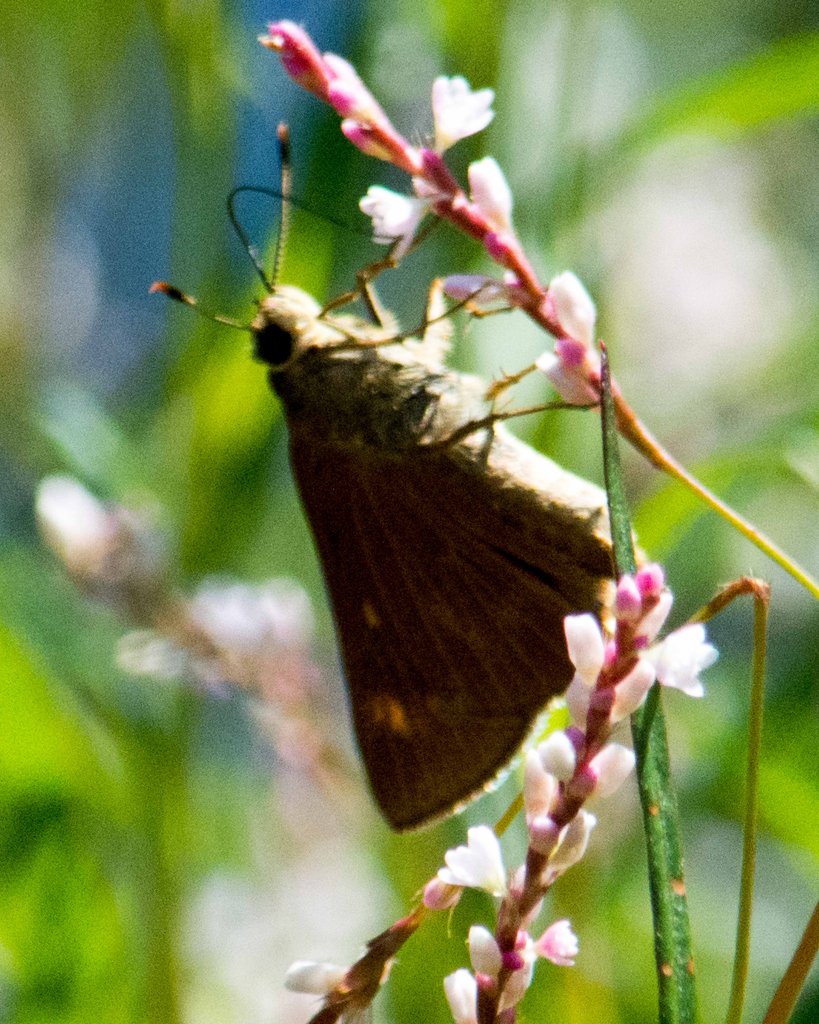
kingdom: Animalia
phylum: Arthropoda
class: Insecta
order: Lepidoptera
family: Hesperiidae
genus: Problema
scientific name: Problema byssus
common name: Byssus Skipper
